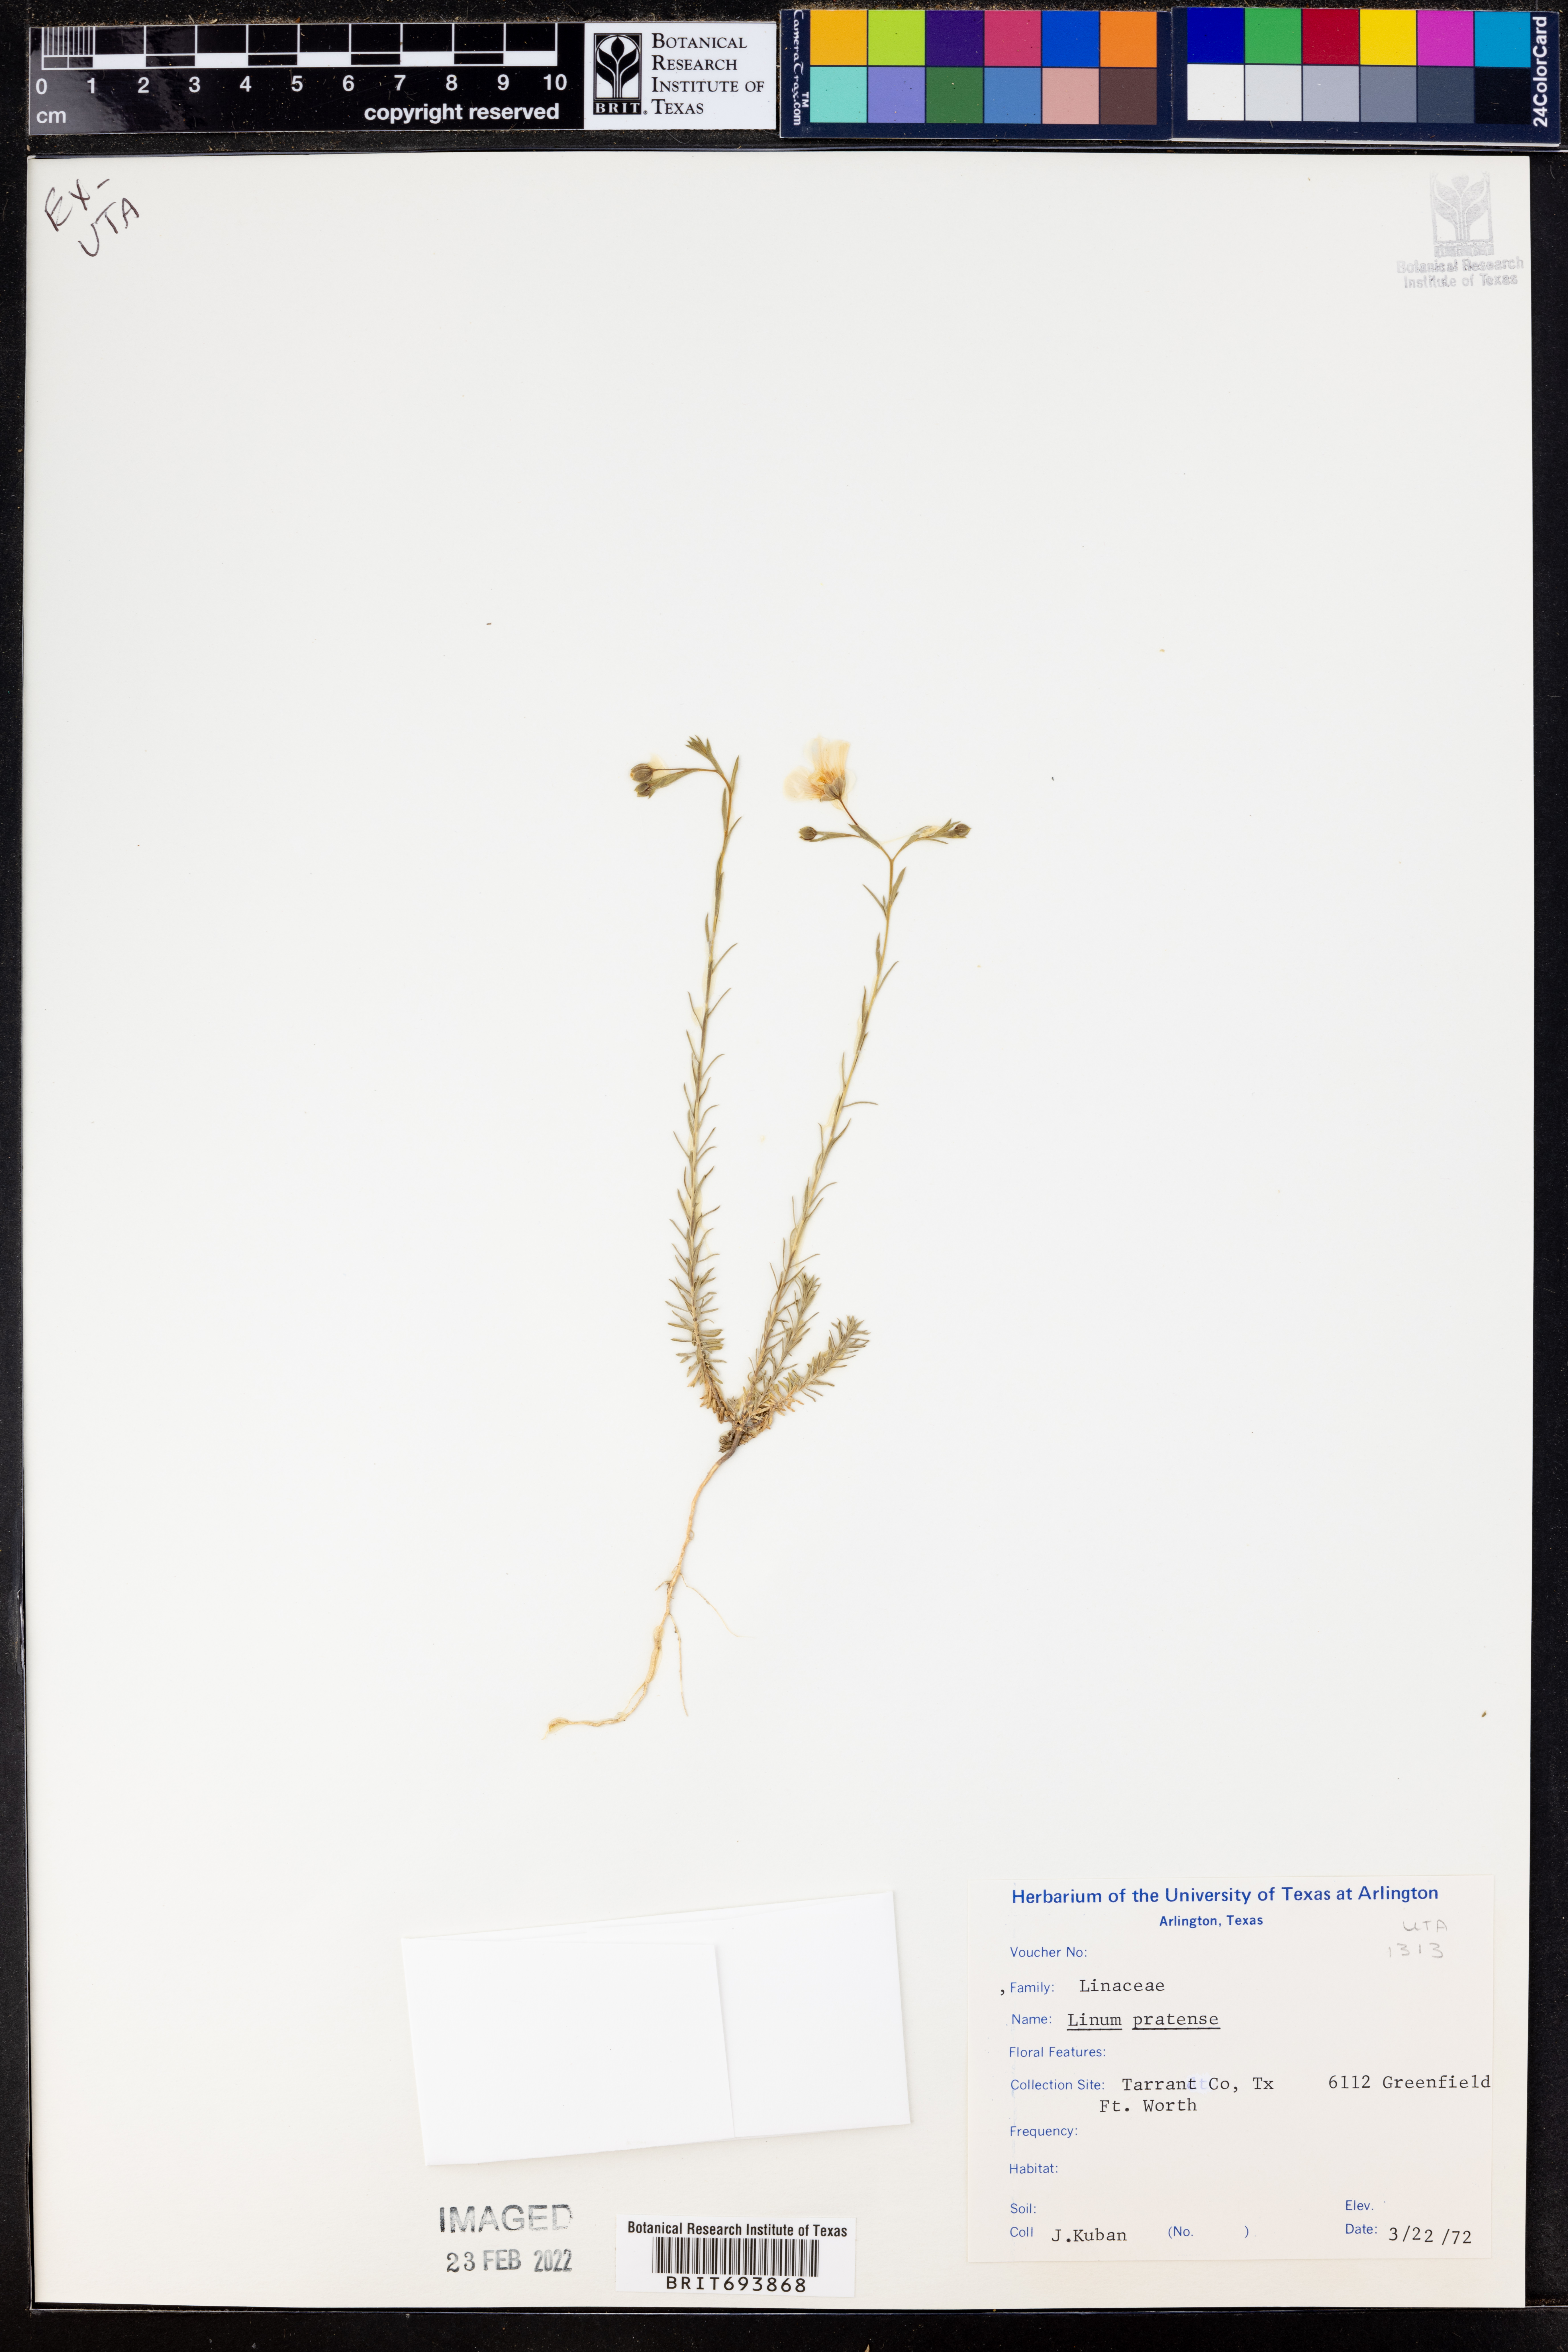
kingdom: Plantae
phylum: Tracheophyta
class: Magnoliopsida
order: Malpighiales
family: Linaceae
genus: Linum
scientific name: Linum pratense
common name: Norton's flax
